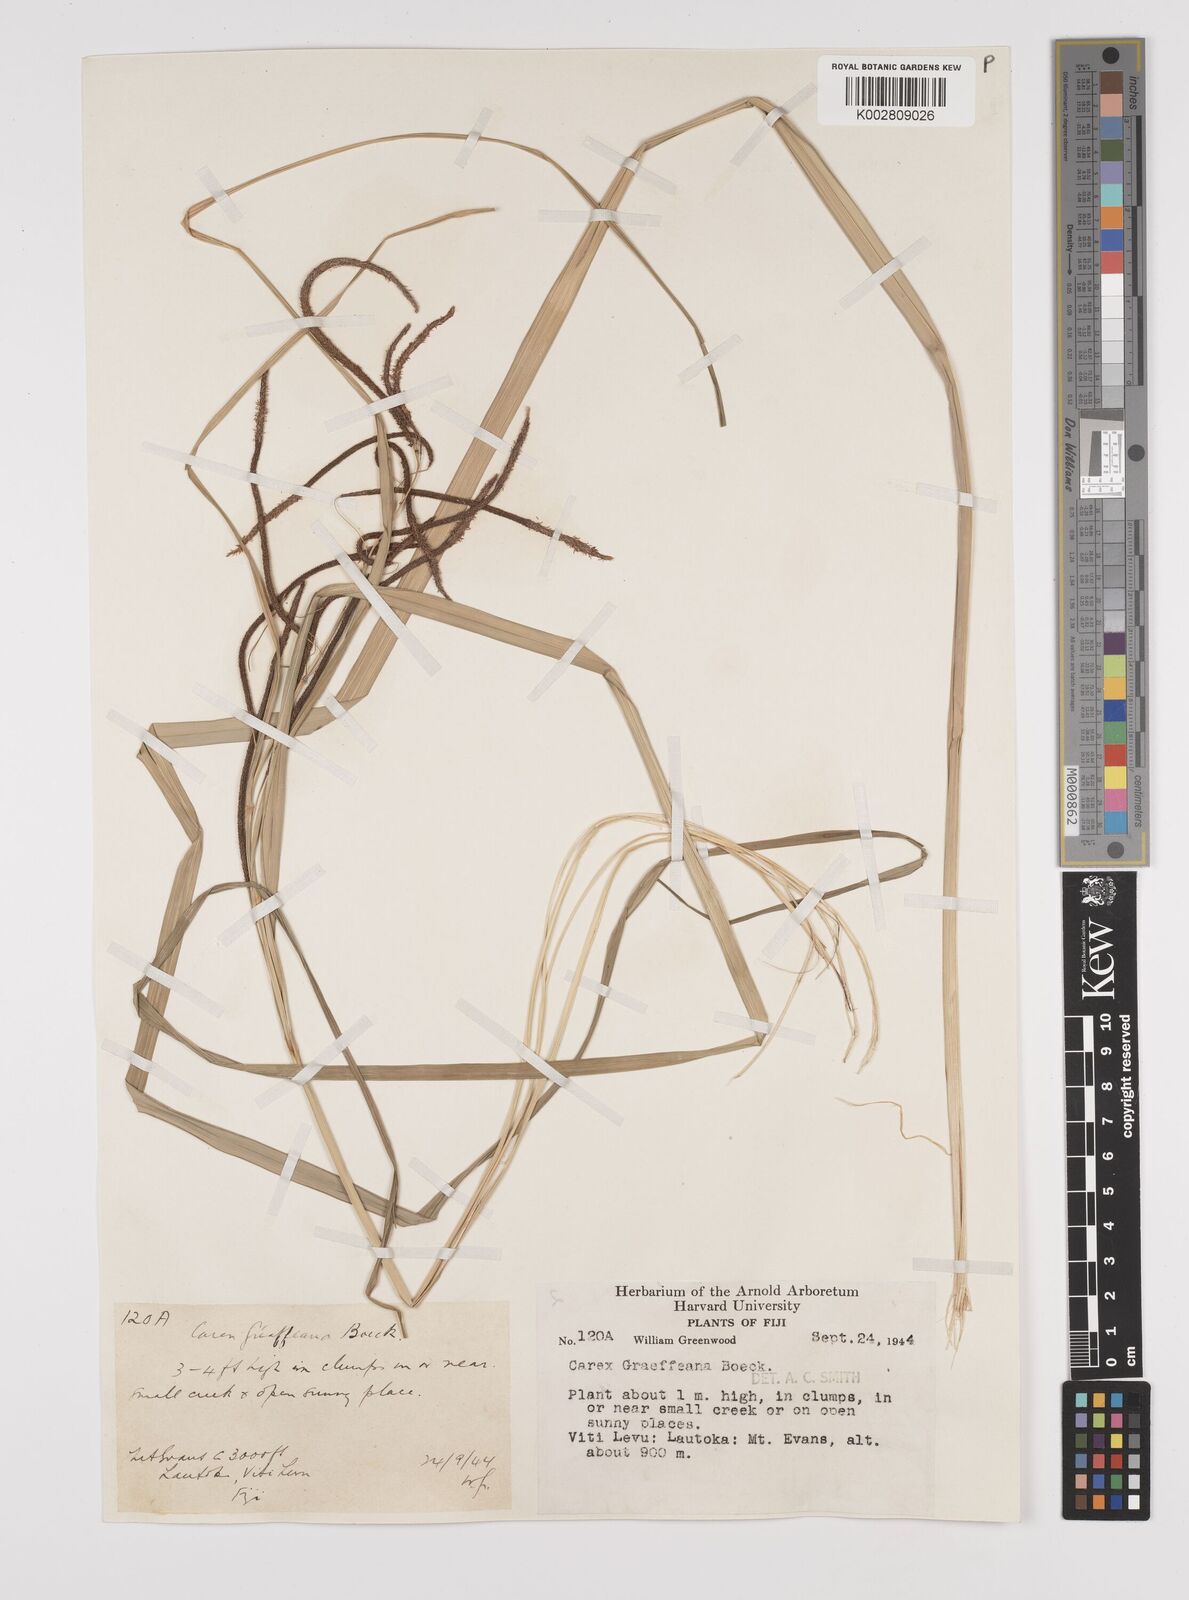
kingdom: Plantae
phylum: Tracheophyta
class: Liliopsida
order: Poales
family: Cyperaceae
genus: Carex
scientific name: Carex graeffeana
